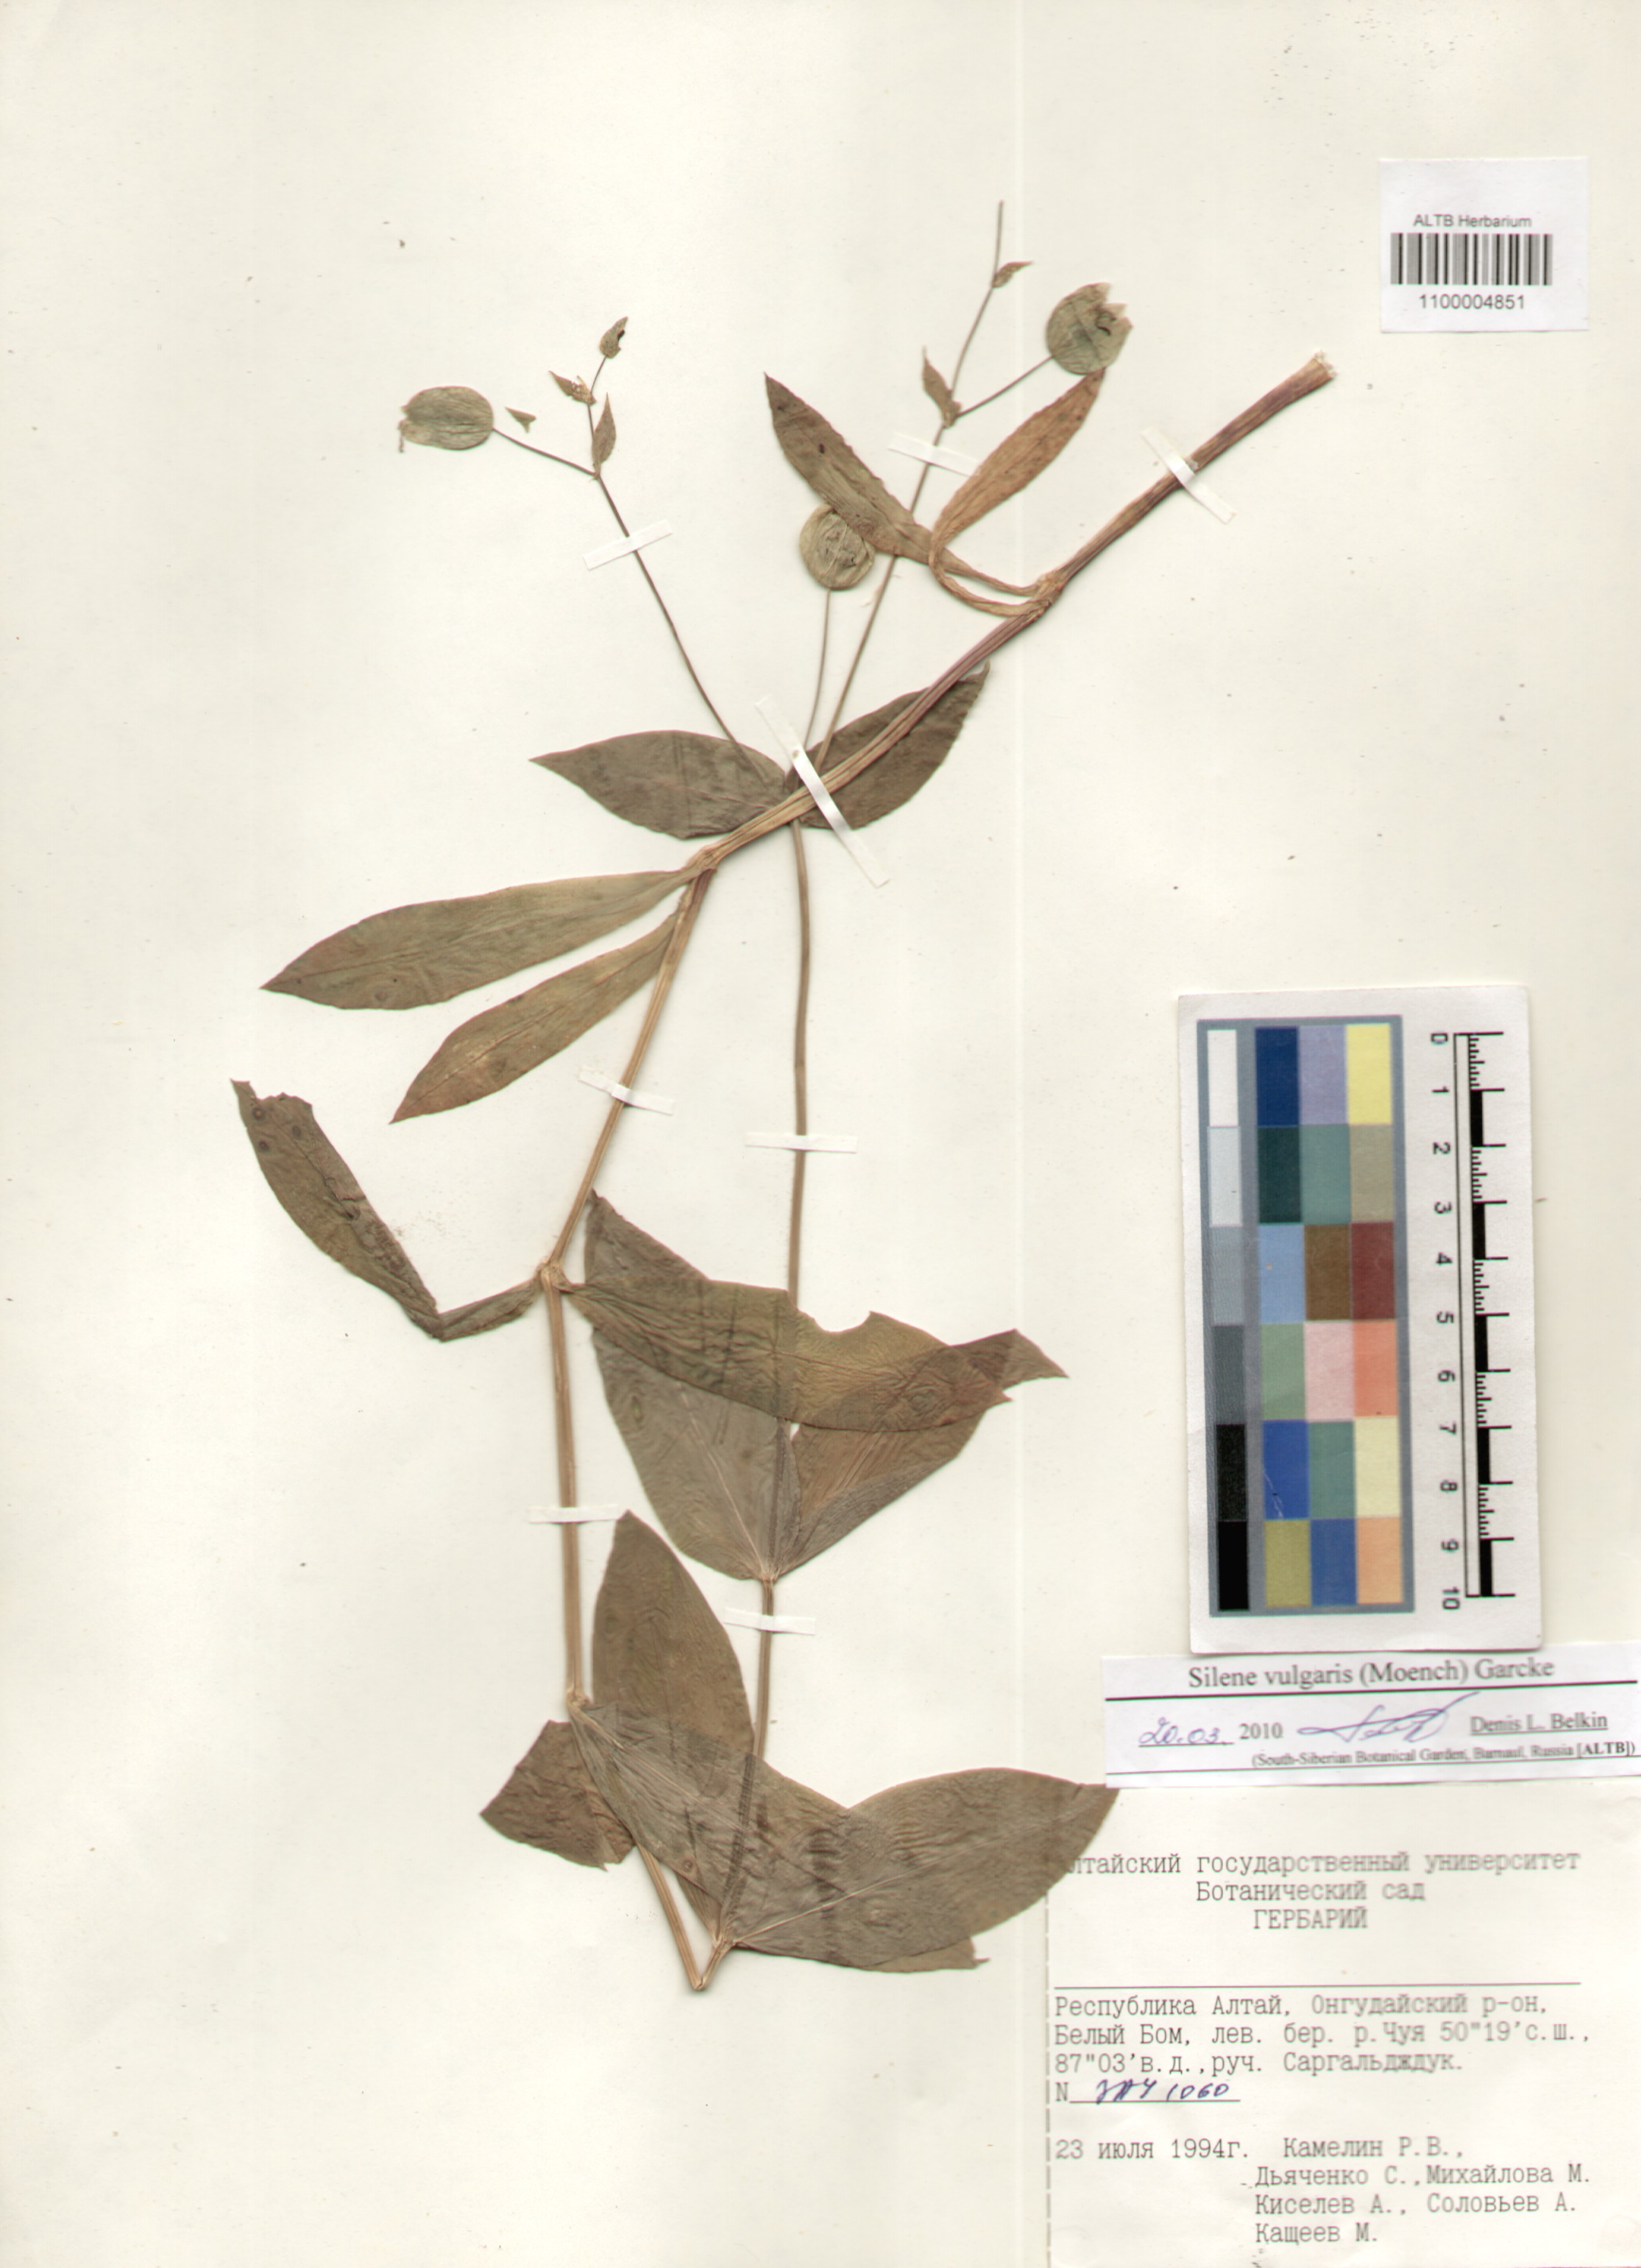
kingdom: Plantae
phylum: Tracheophyta
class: Magnoliopsida
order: Caryophyllales
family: Caryophyllaceae
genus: Silene
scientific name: Silene vulgaris
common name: Bladder campion
